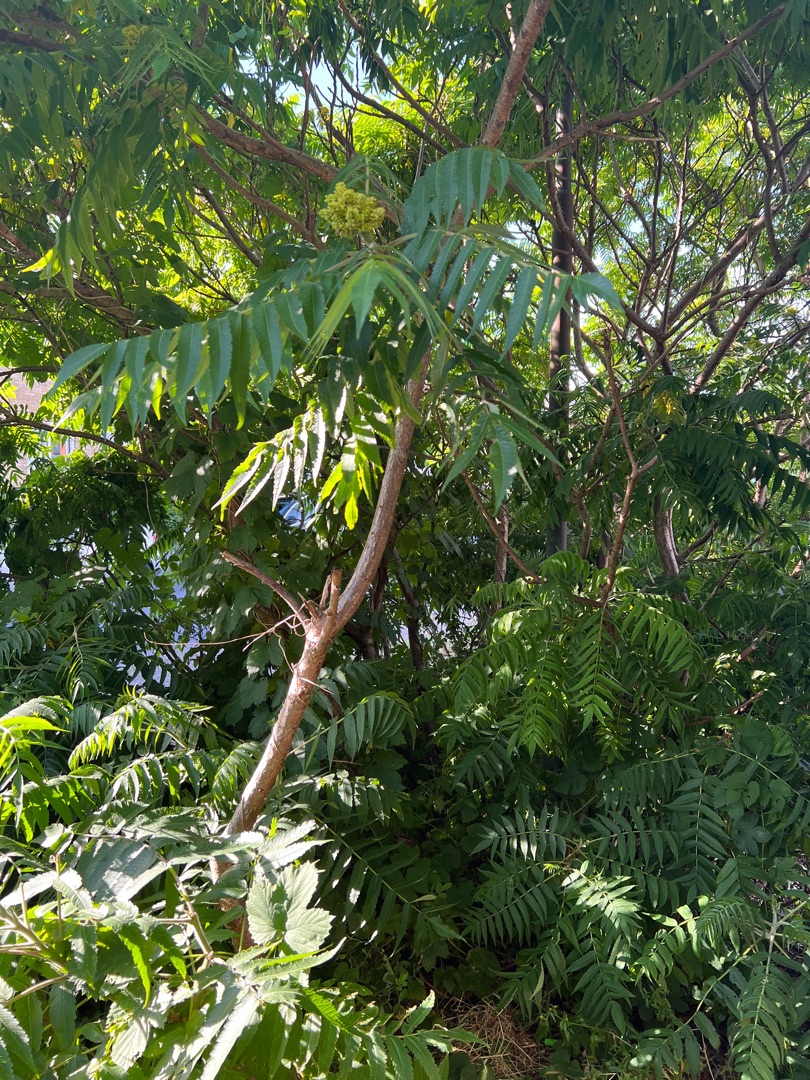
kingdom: Plantae
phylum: Tracheophyta
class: Magnoliopsida
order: Sapindales
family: Anacardiaceae
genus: Rhus
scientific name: Rhus typhina
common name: Hjortetaktræ
